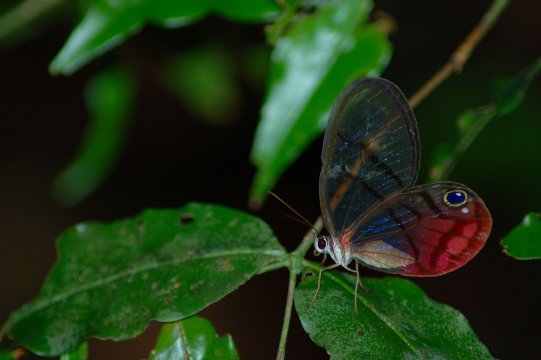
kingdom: Animalia
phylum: Arthropoda
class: Insecta
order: Lepidoptera
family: Nymphalidae
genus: Cithaerias
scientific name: Cithaerias pireta
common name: Rusted Clearwing-Satyr
